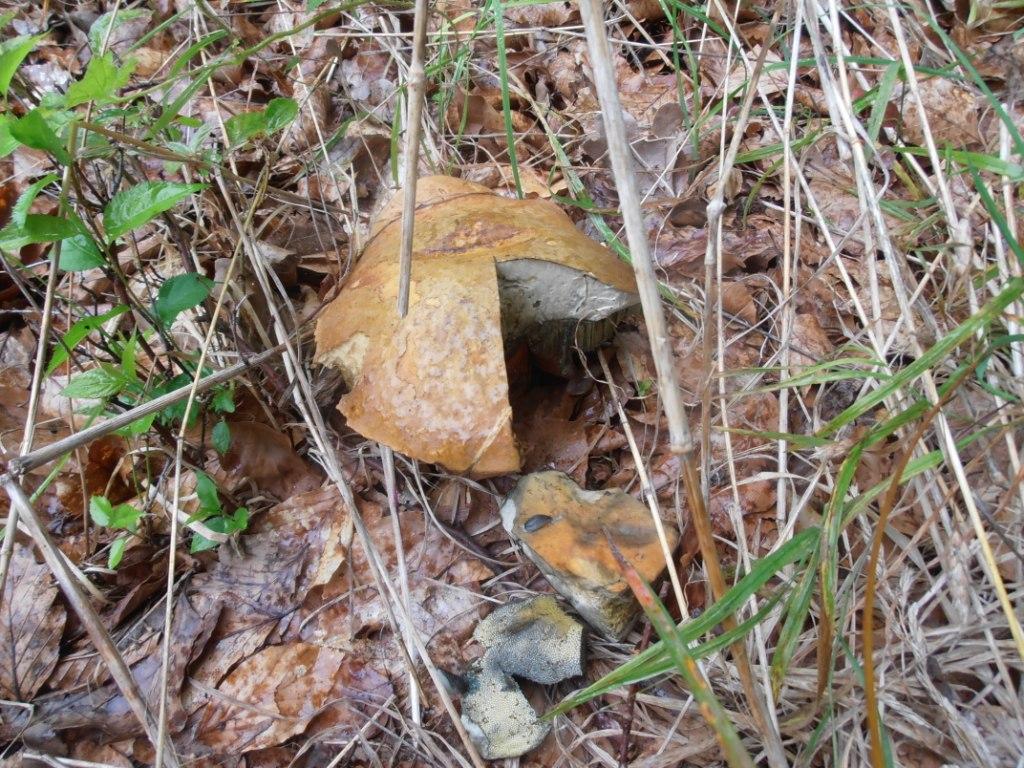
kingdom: Fungi
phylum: Basidiomycota
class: Agaricomycetes
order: Boletales
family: Boletaceae
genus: Suillellus
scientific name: Suillellus luridus
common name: netstokket indigorørhat
